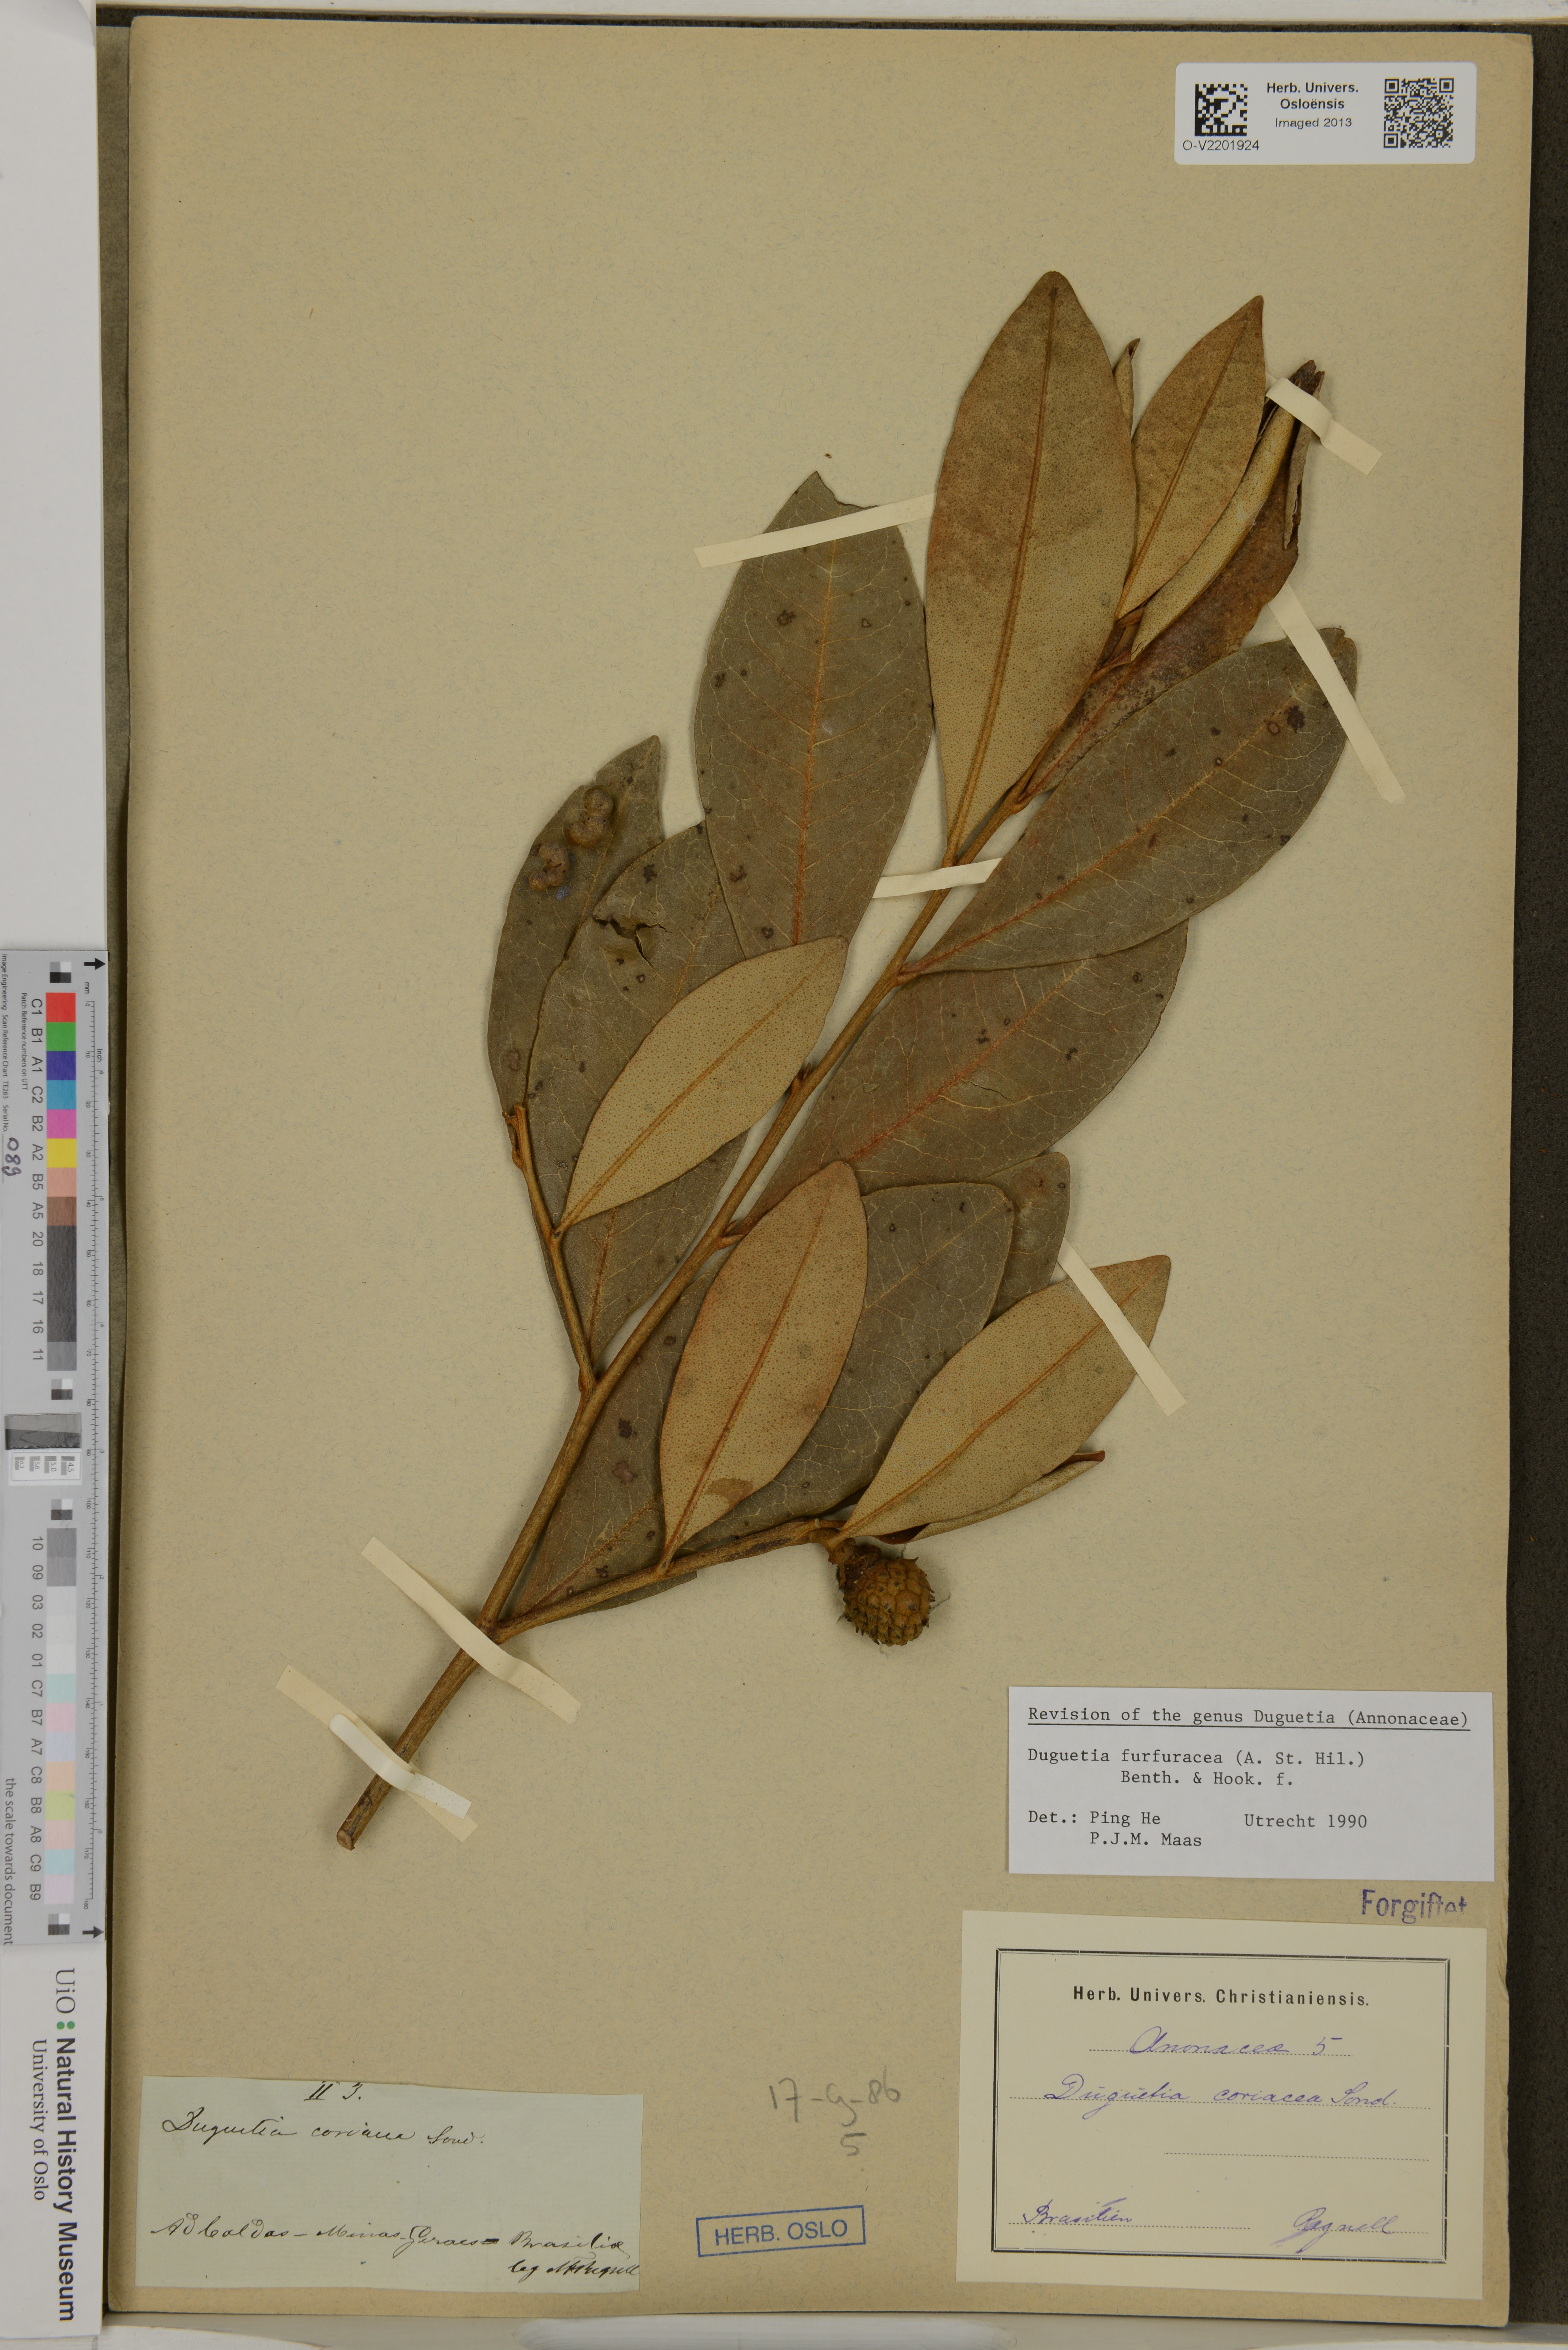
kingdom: Plantae
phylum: Tracheophyta
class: Magnoliopsida
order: Magnoliales
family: Annonaceae
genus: Duguetia
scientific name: Duguetia furfuracea
